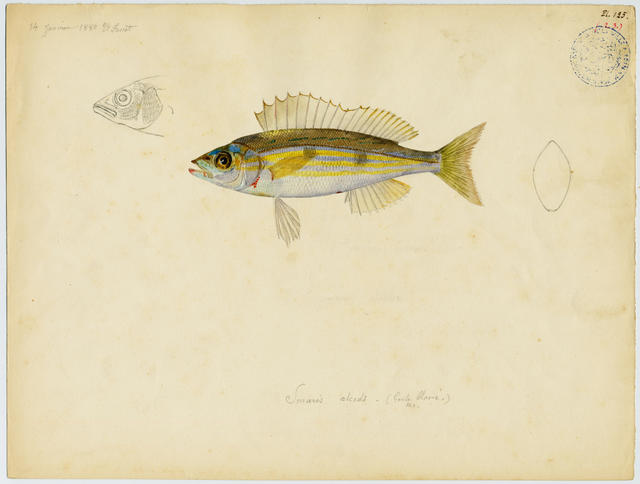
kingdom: Animalia
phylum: Chordata
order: Perciformes
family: Sparidae
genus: Spicara
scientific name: Spicara maena
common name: Blotched picarel
